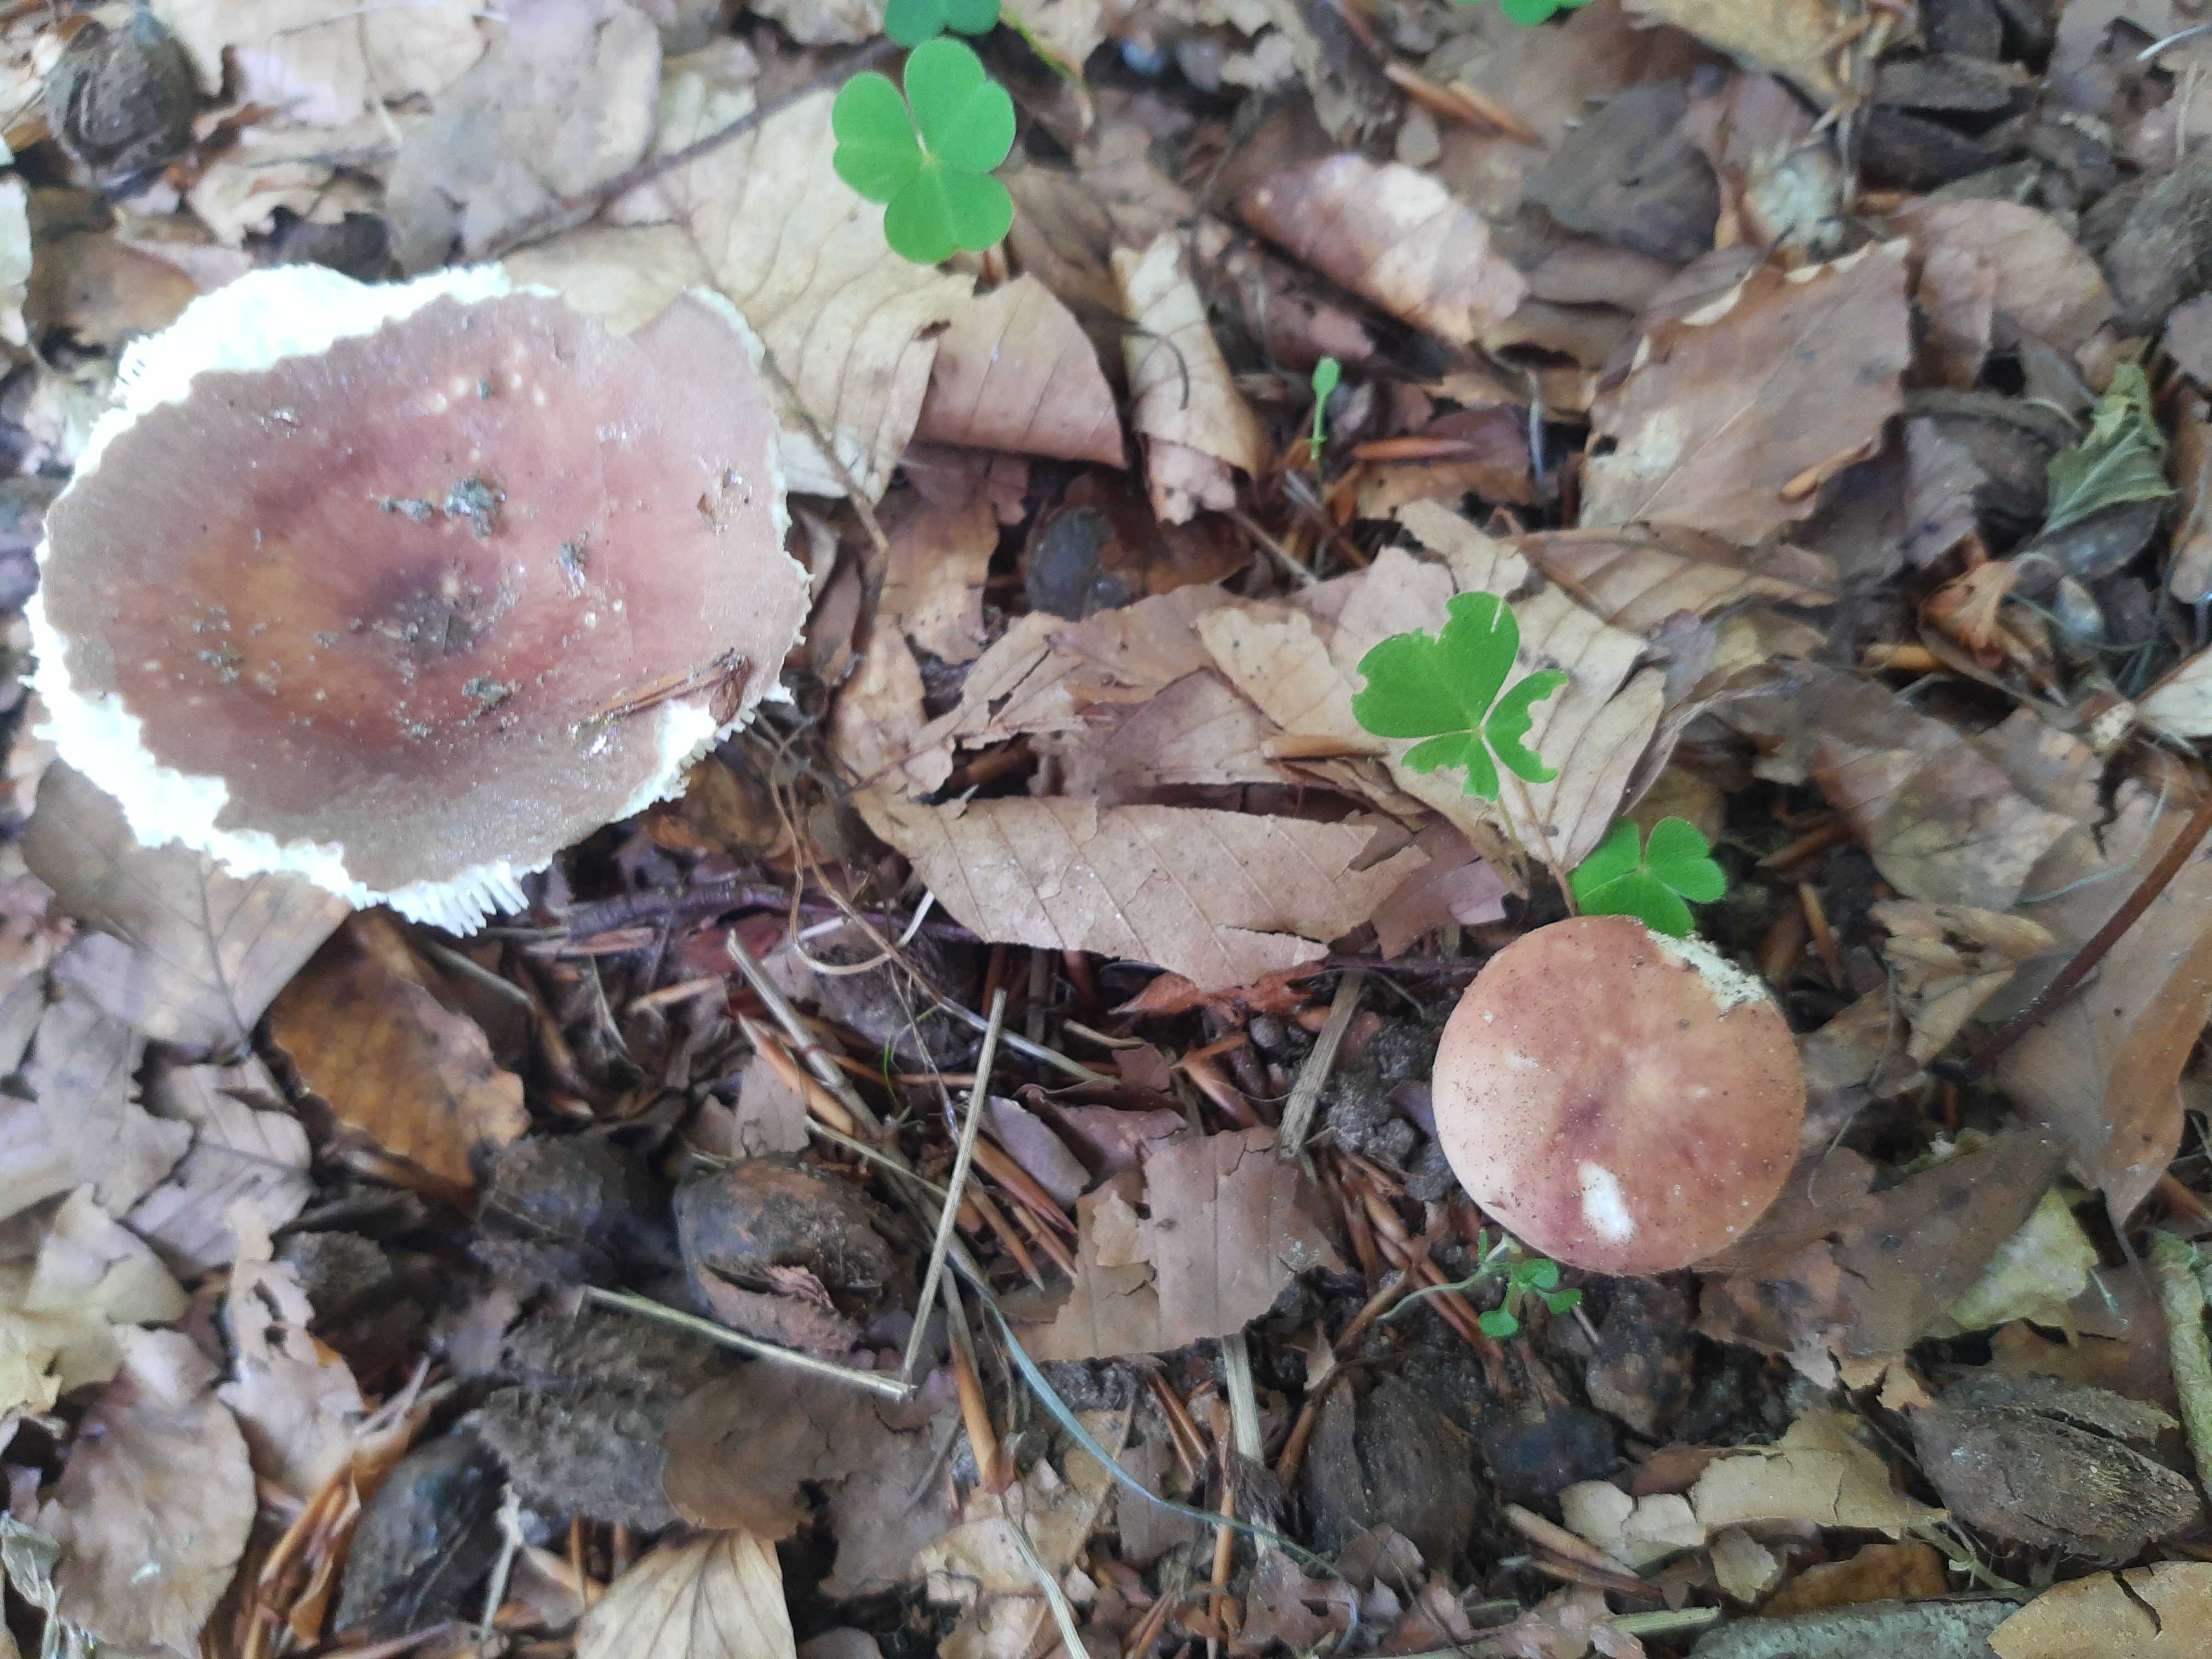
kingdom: Fungi
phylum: Basidiomycota
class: Agaricomycetes
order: Russulales
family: Russulaceae
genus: Russula
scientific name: Russula vesca
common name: spiselig skørhat
